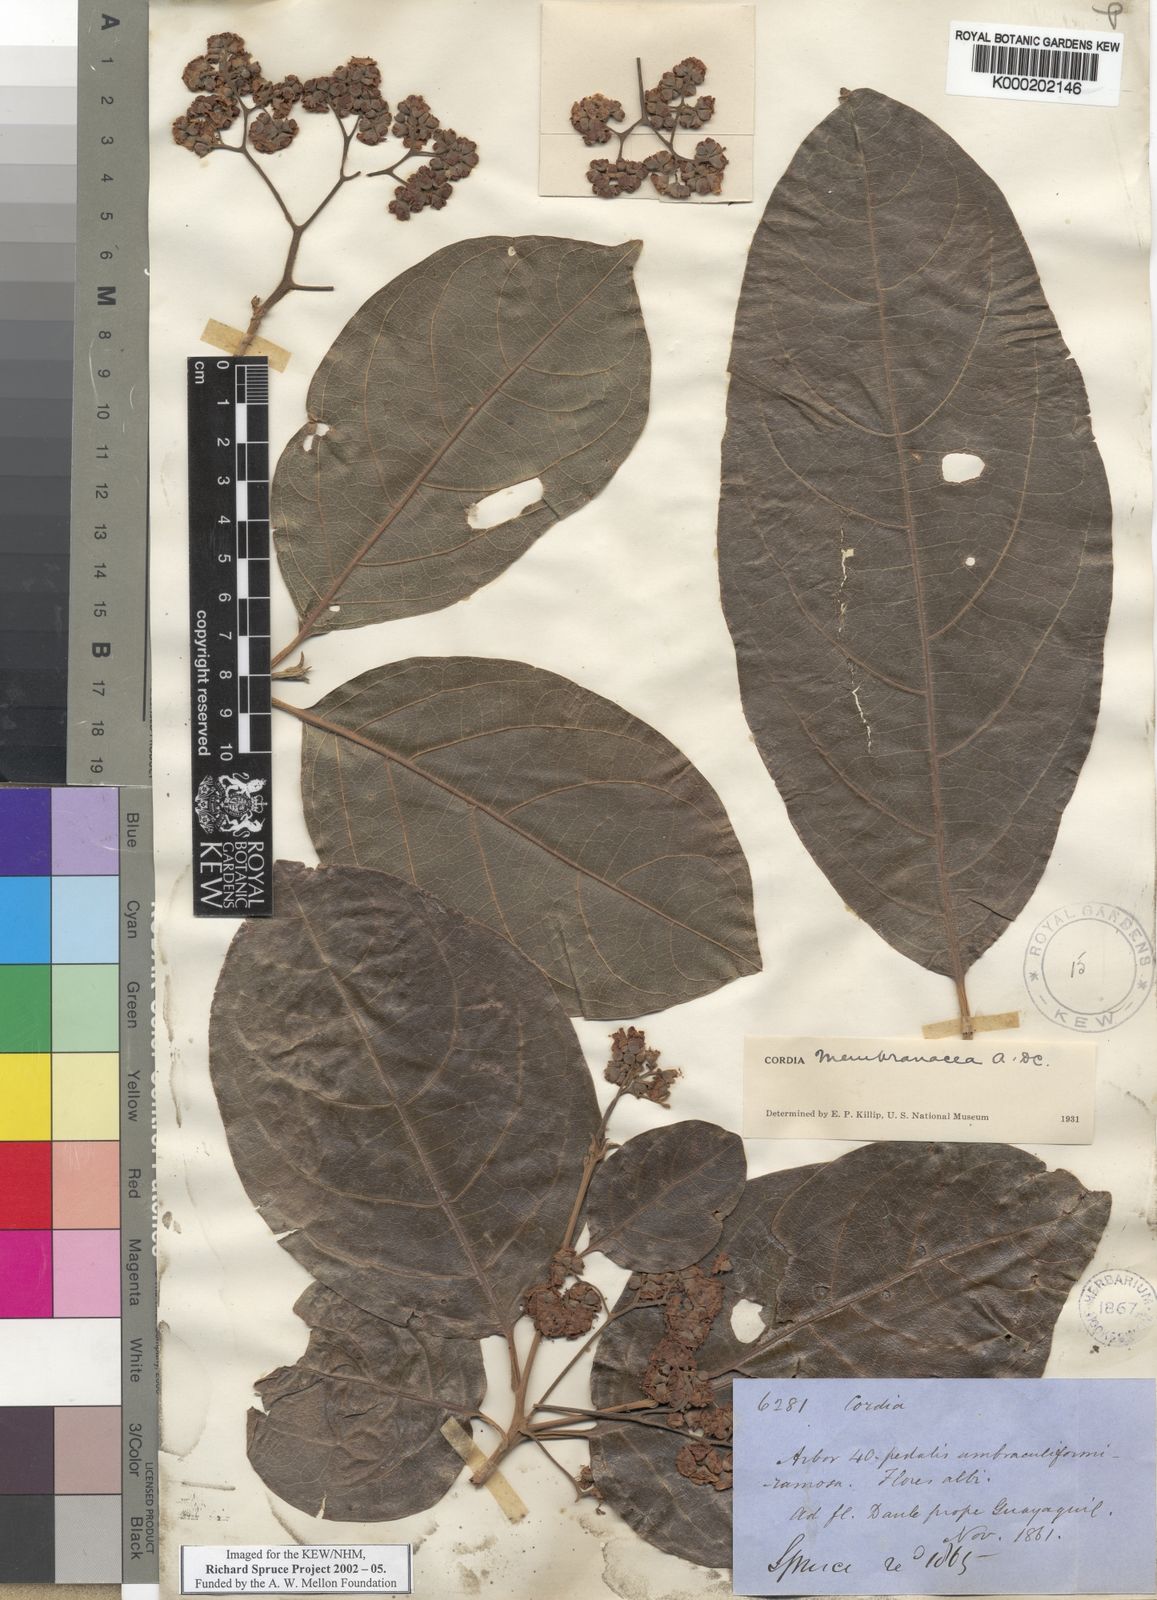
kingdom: Plantae
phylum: Tracheophyta
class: Magnoliopsida
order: Boraginales
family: Cordiaceae
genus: Cordia
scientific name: Cordia membranacea
